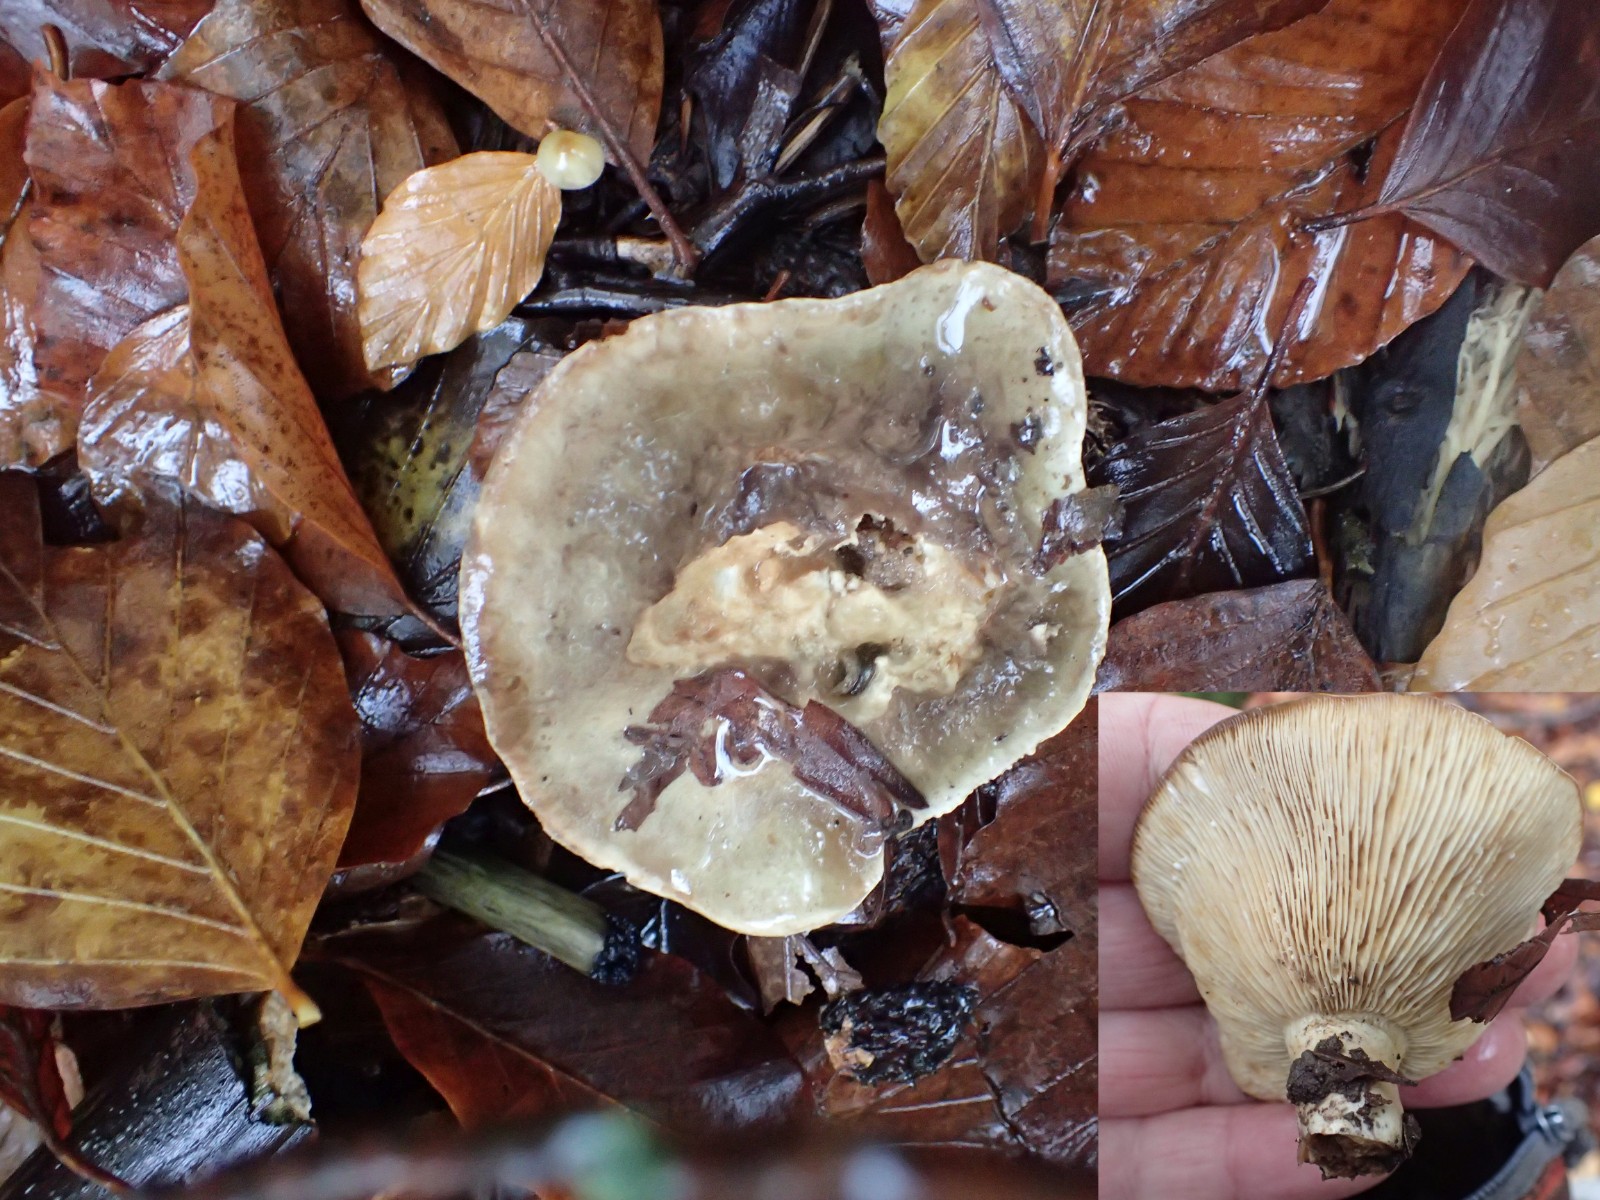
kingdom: Fungi
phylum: Basidiomycota
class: Agaricomycetes
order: Russulales
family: Russulaceae
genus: Lactarius
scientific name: Lactarius fluens
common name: lysrandet mælkehat
